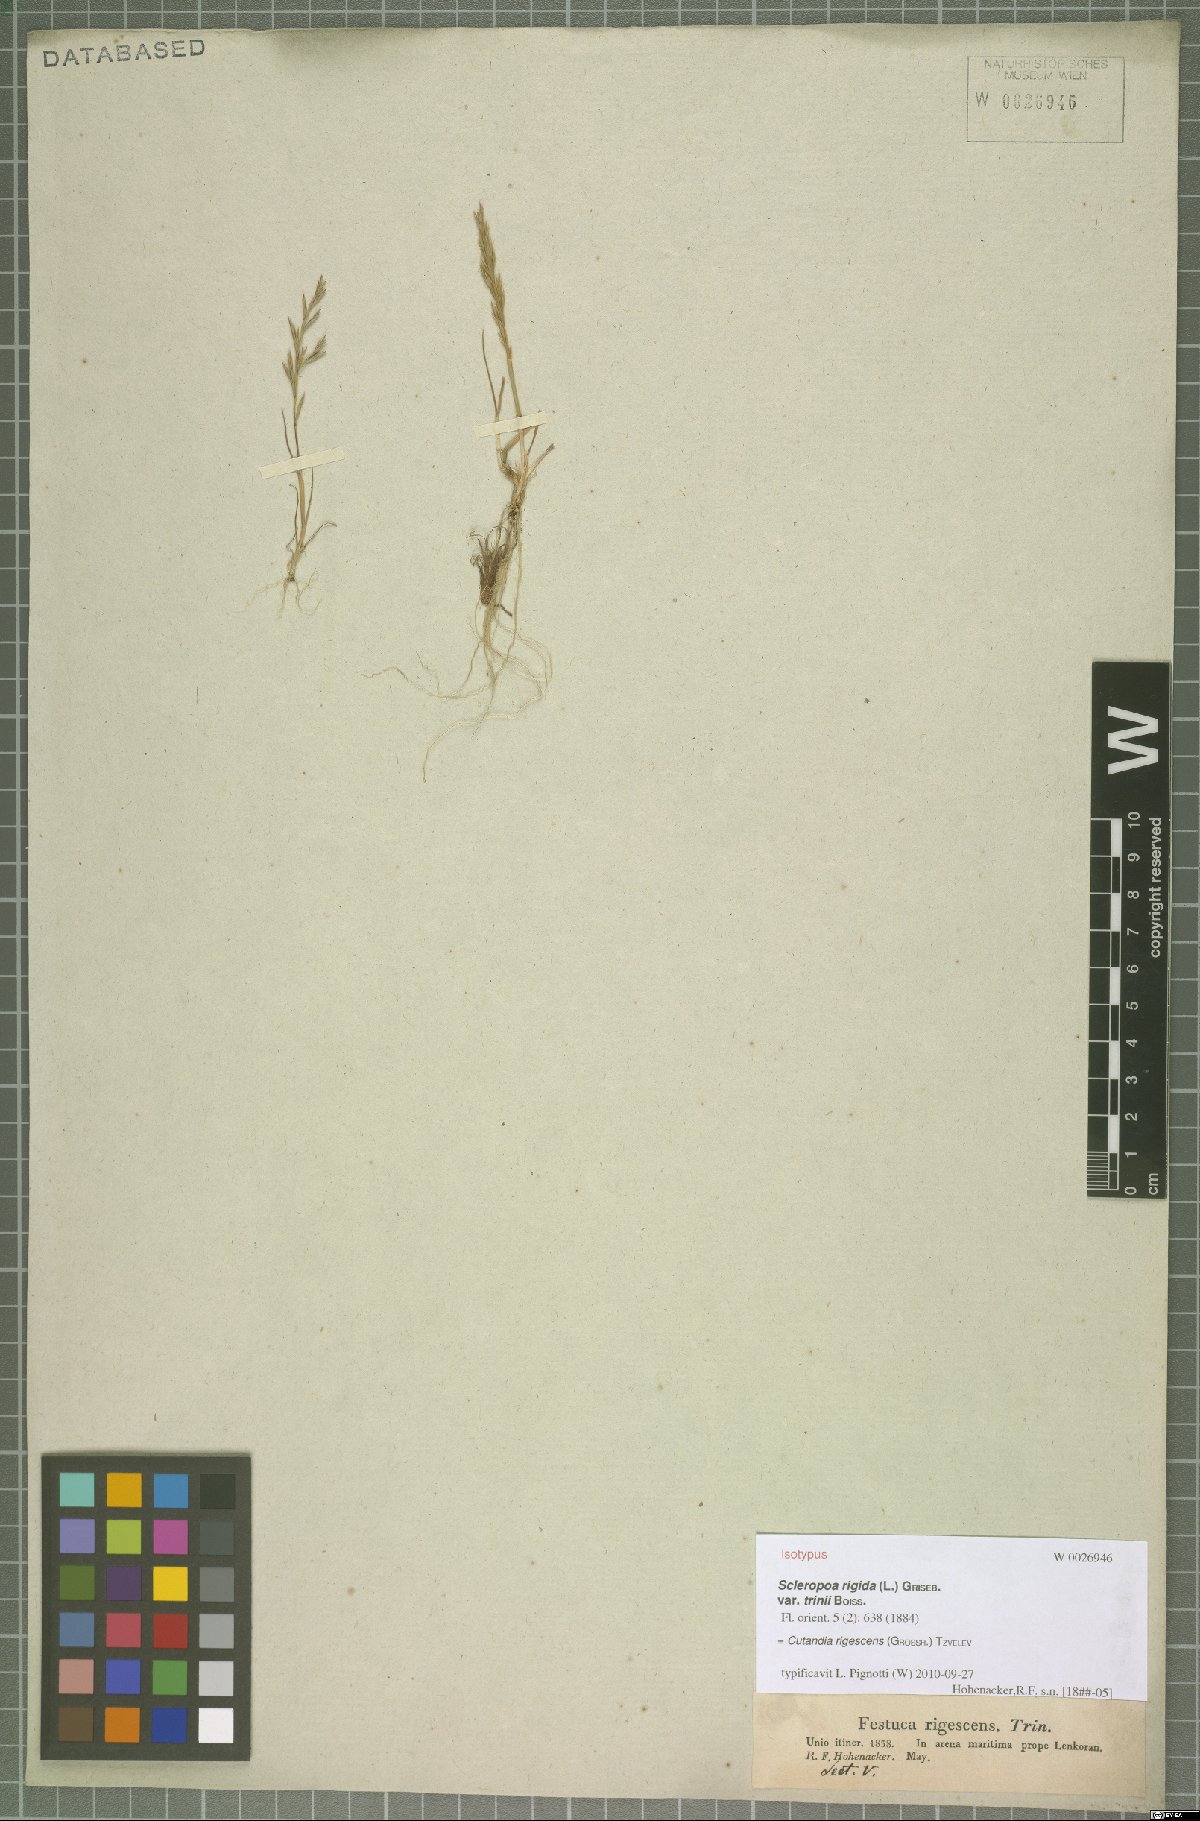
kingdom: Plantae
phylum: Tracheophyta
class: Liliopsida
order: Poales
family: Poaceae
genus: Cutandia
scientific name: Cutandia rigescens
